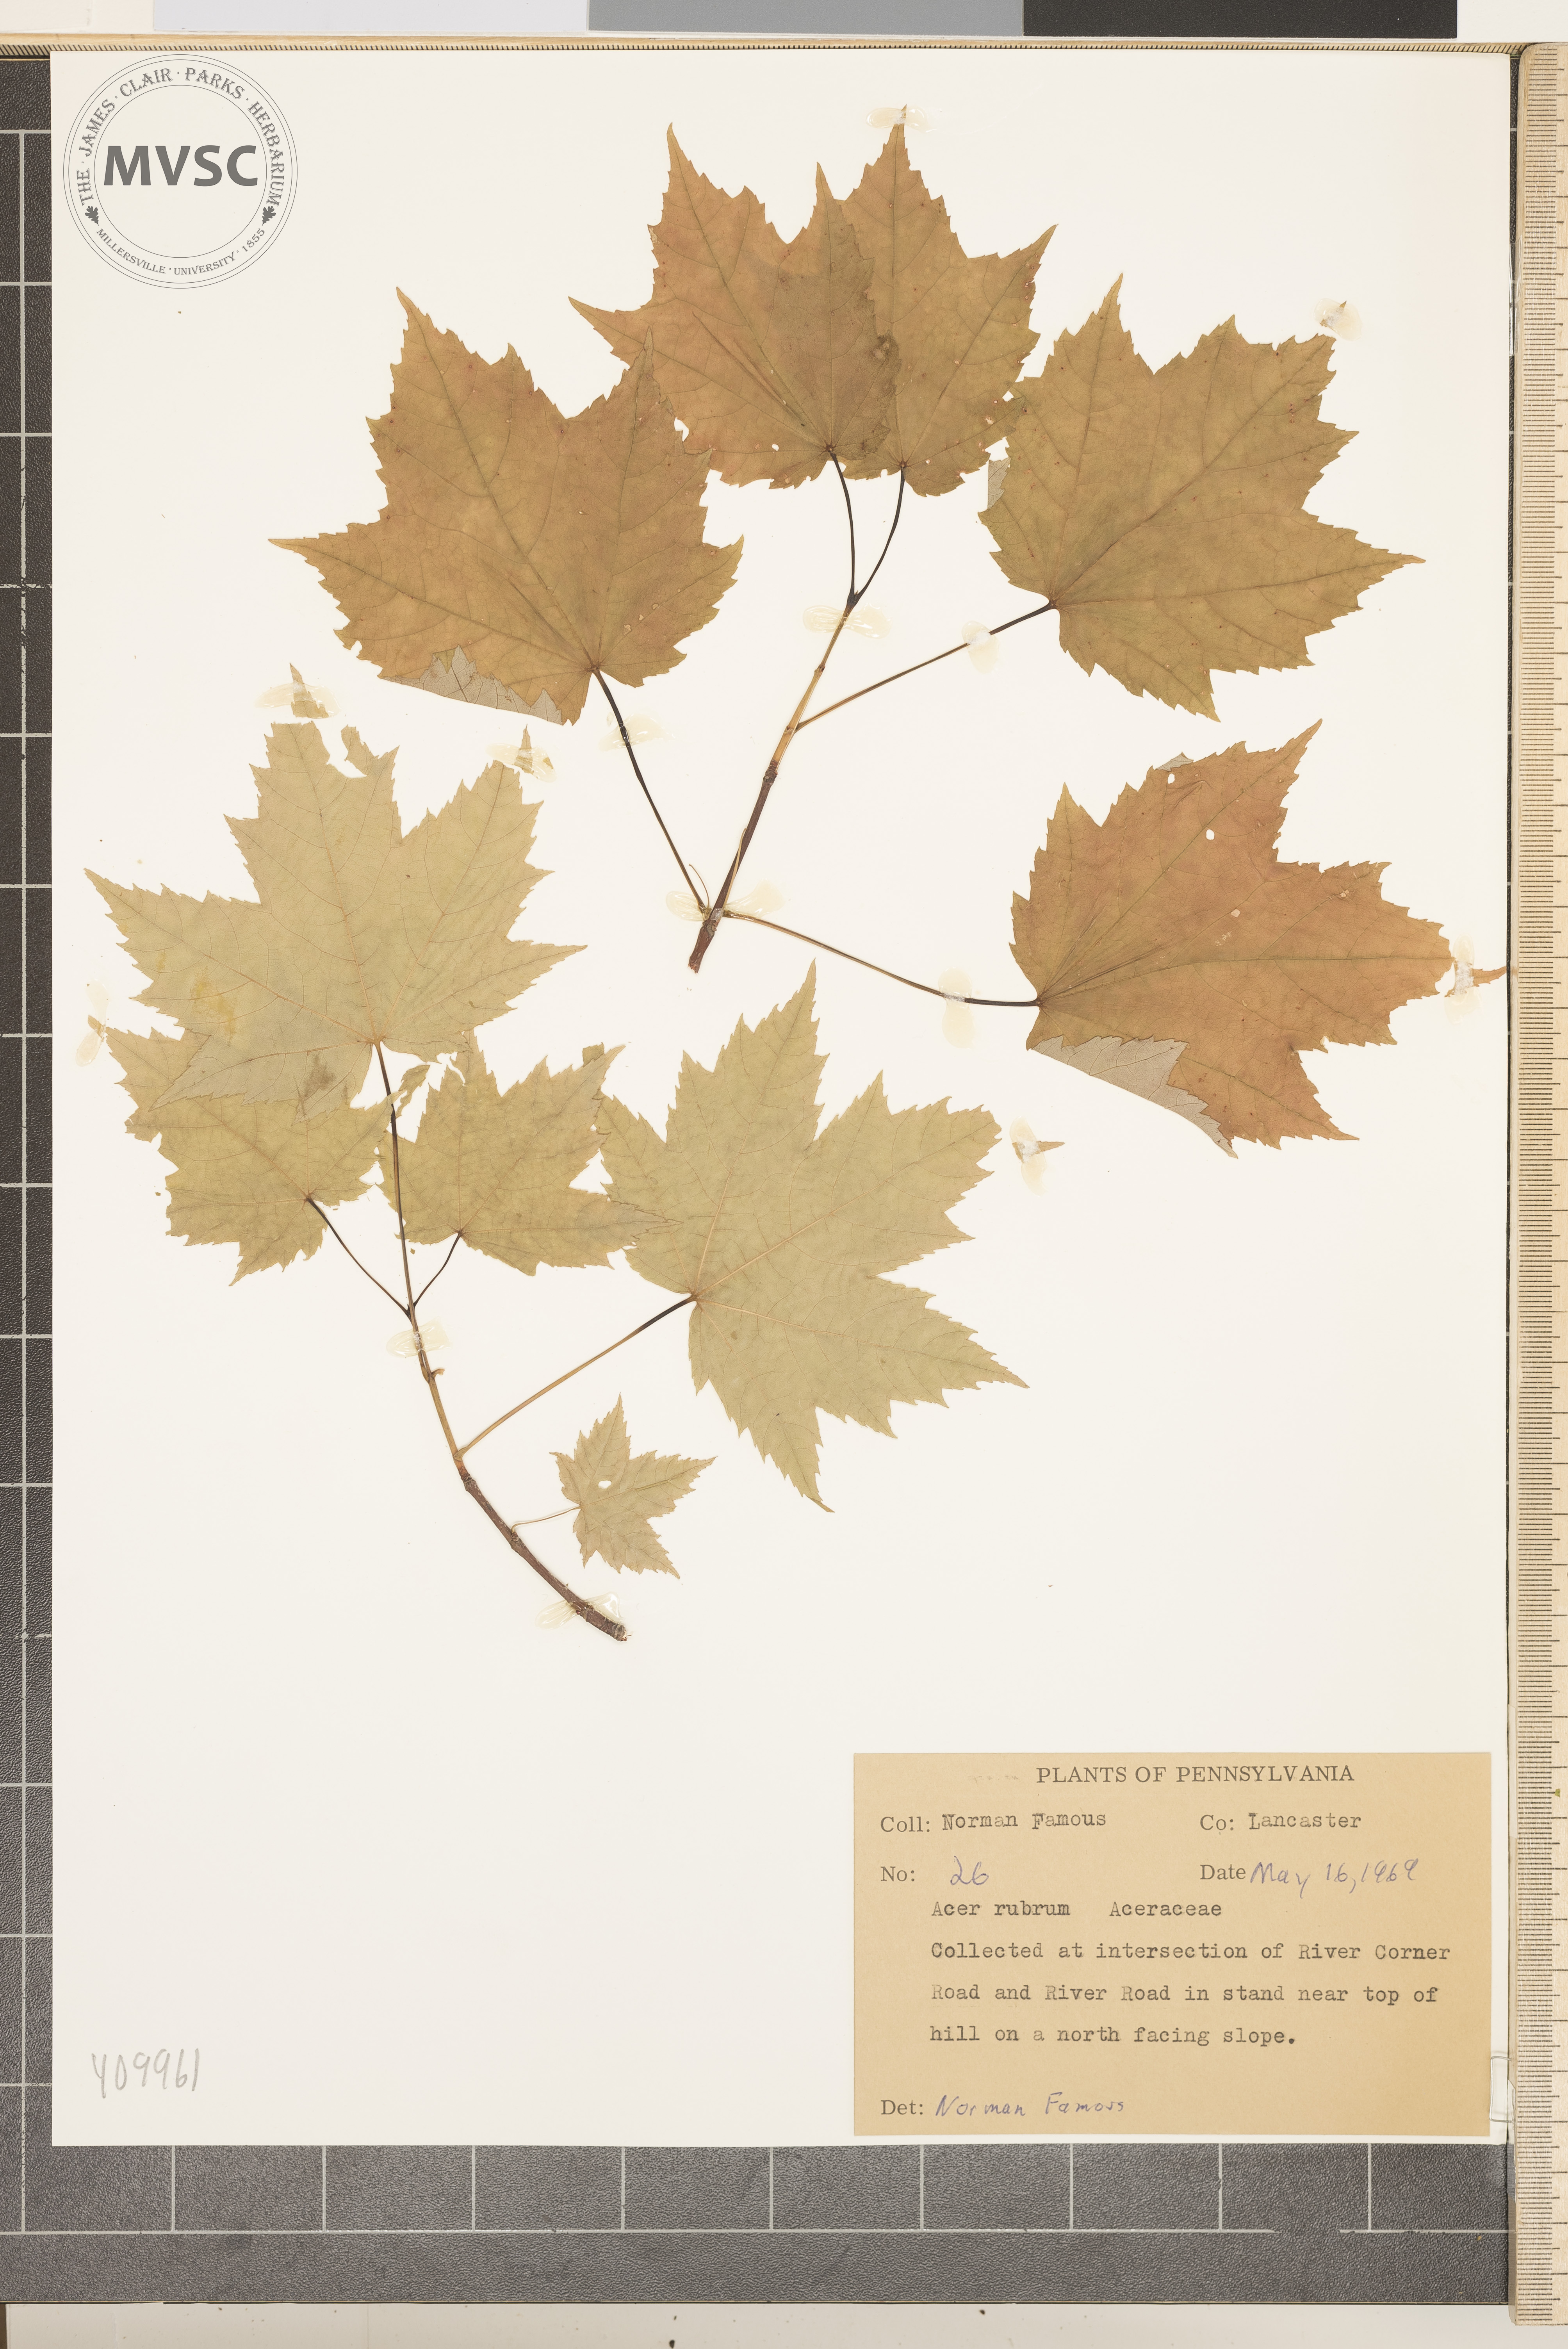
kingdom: Plantae
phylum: Tracheophyta
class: Magnoliopsida
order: Sapindales
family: Sapindaceae
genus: Acer
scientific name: Acer rubrum
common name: Red maple
